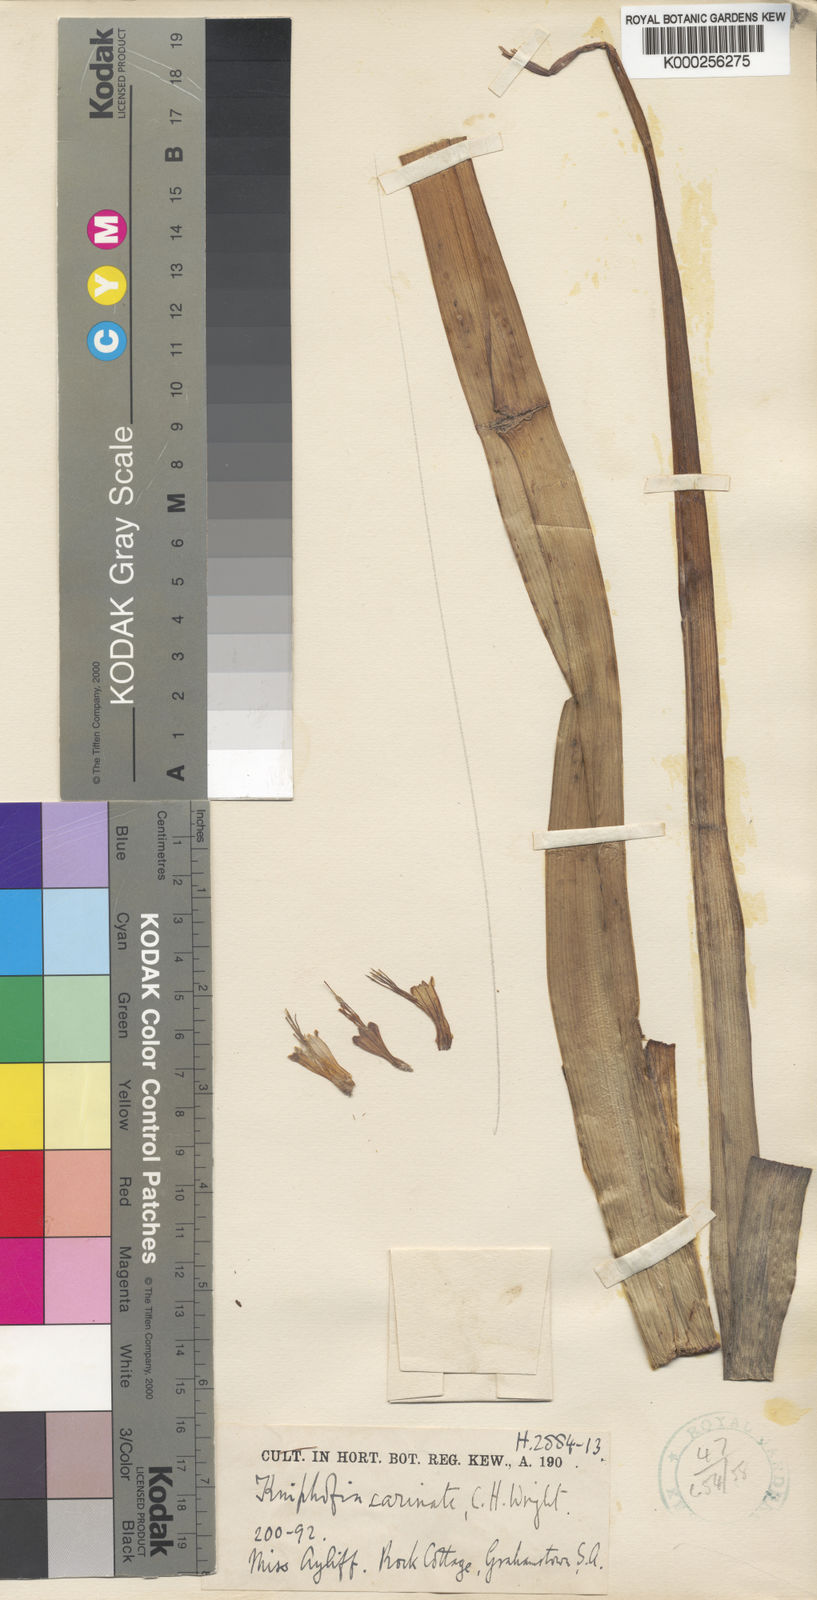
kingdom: Plantae
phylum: Tracheophyta
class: Liliopsida
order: Asparagales
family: Asphodelaceae
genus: Kniphofia
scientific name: Kniphofia pumila
